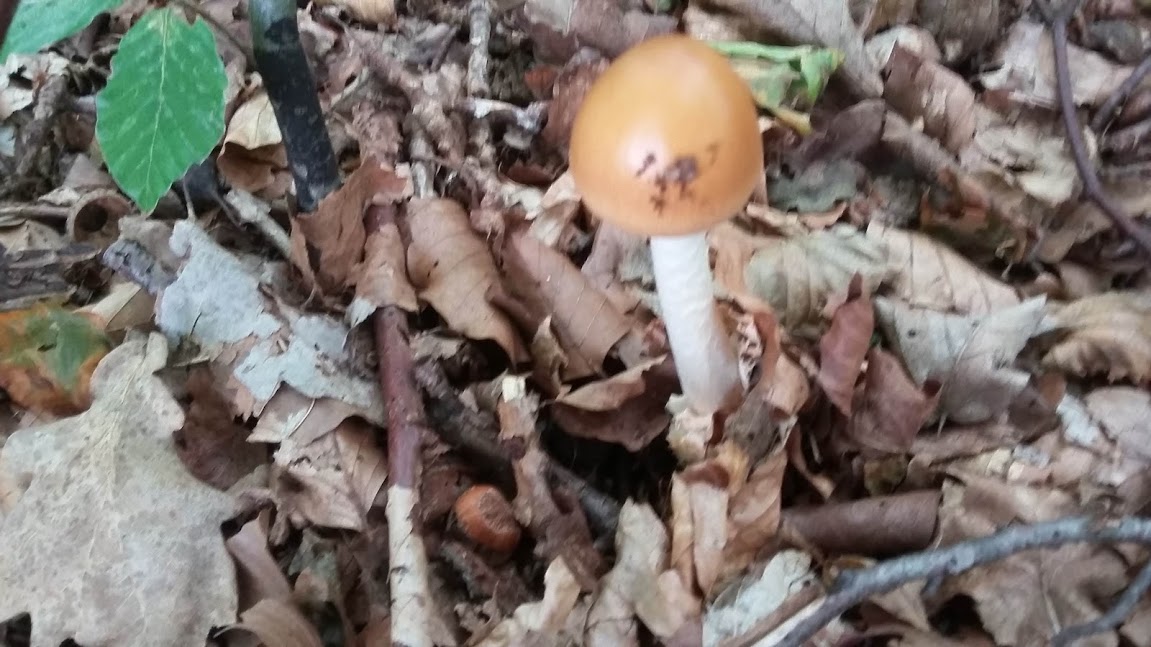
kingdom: Fungi
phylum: Basidiomycota
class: Agaricomycetes
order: Agaricales
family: Amanitaceae
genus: Amanita
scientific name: Amanita fulva
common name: brun kam-fluesvamp
